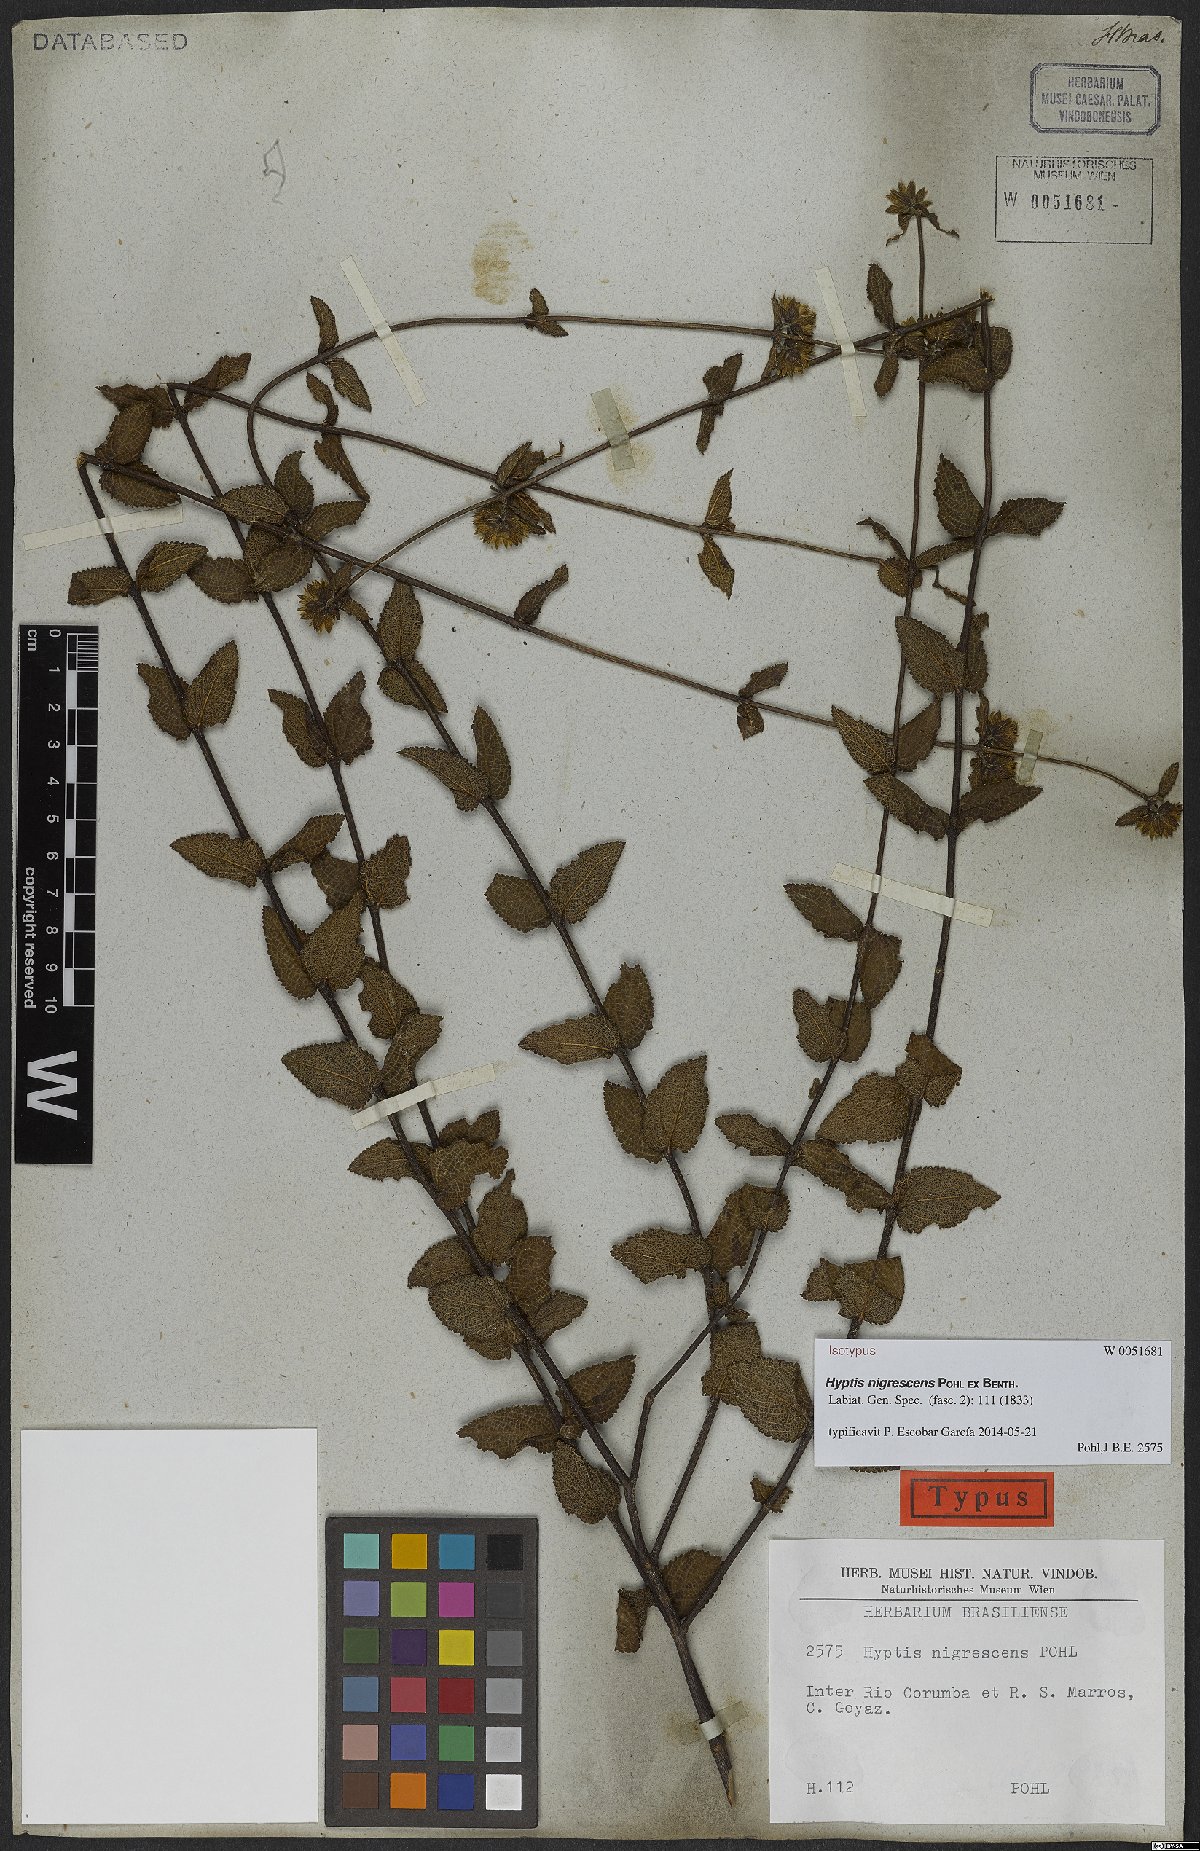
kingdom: Plantae
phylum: Tracheophyta
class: Magnoliopsida
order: Lamiales
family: Lamiaceae
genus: Hyptis
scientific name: Hyptis nigrescens
